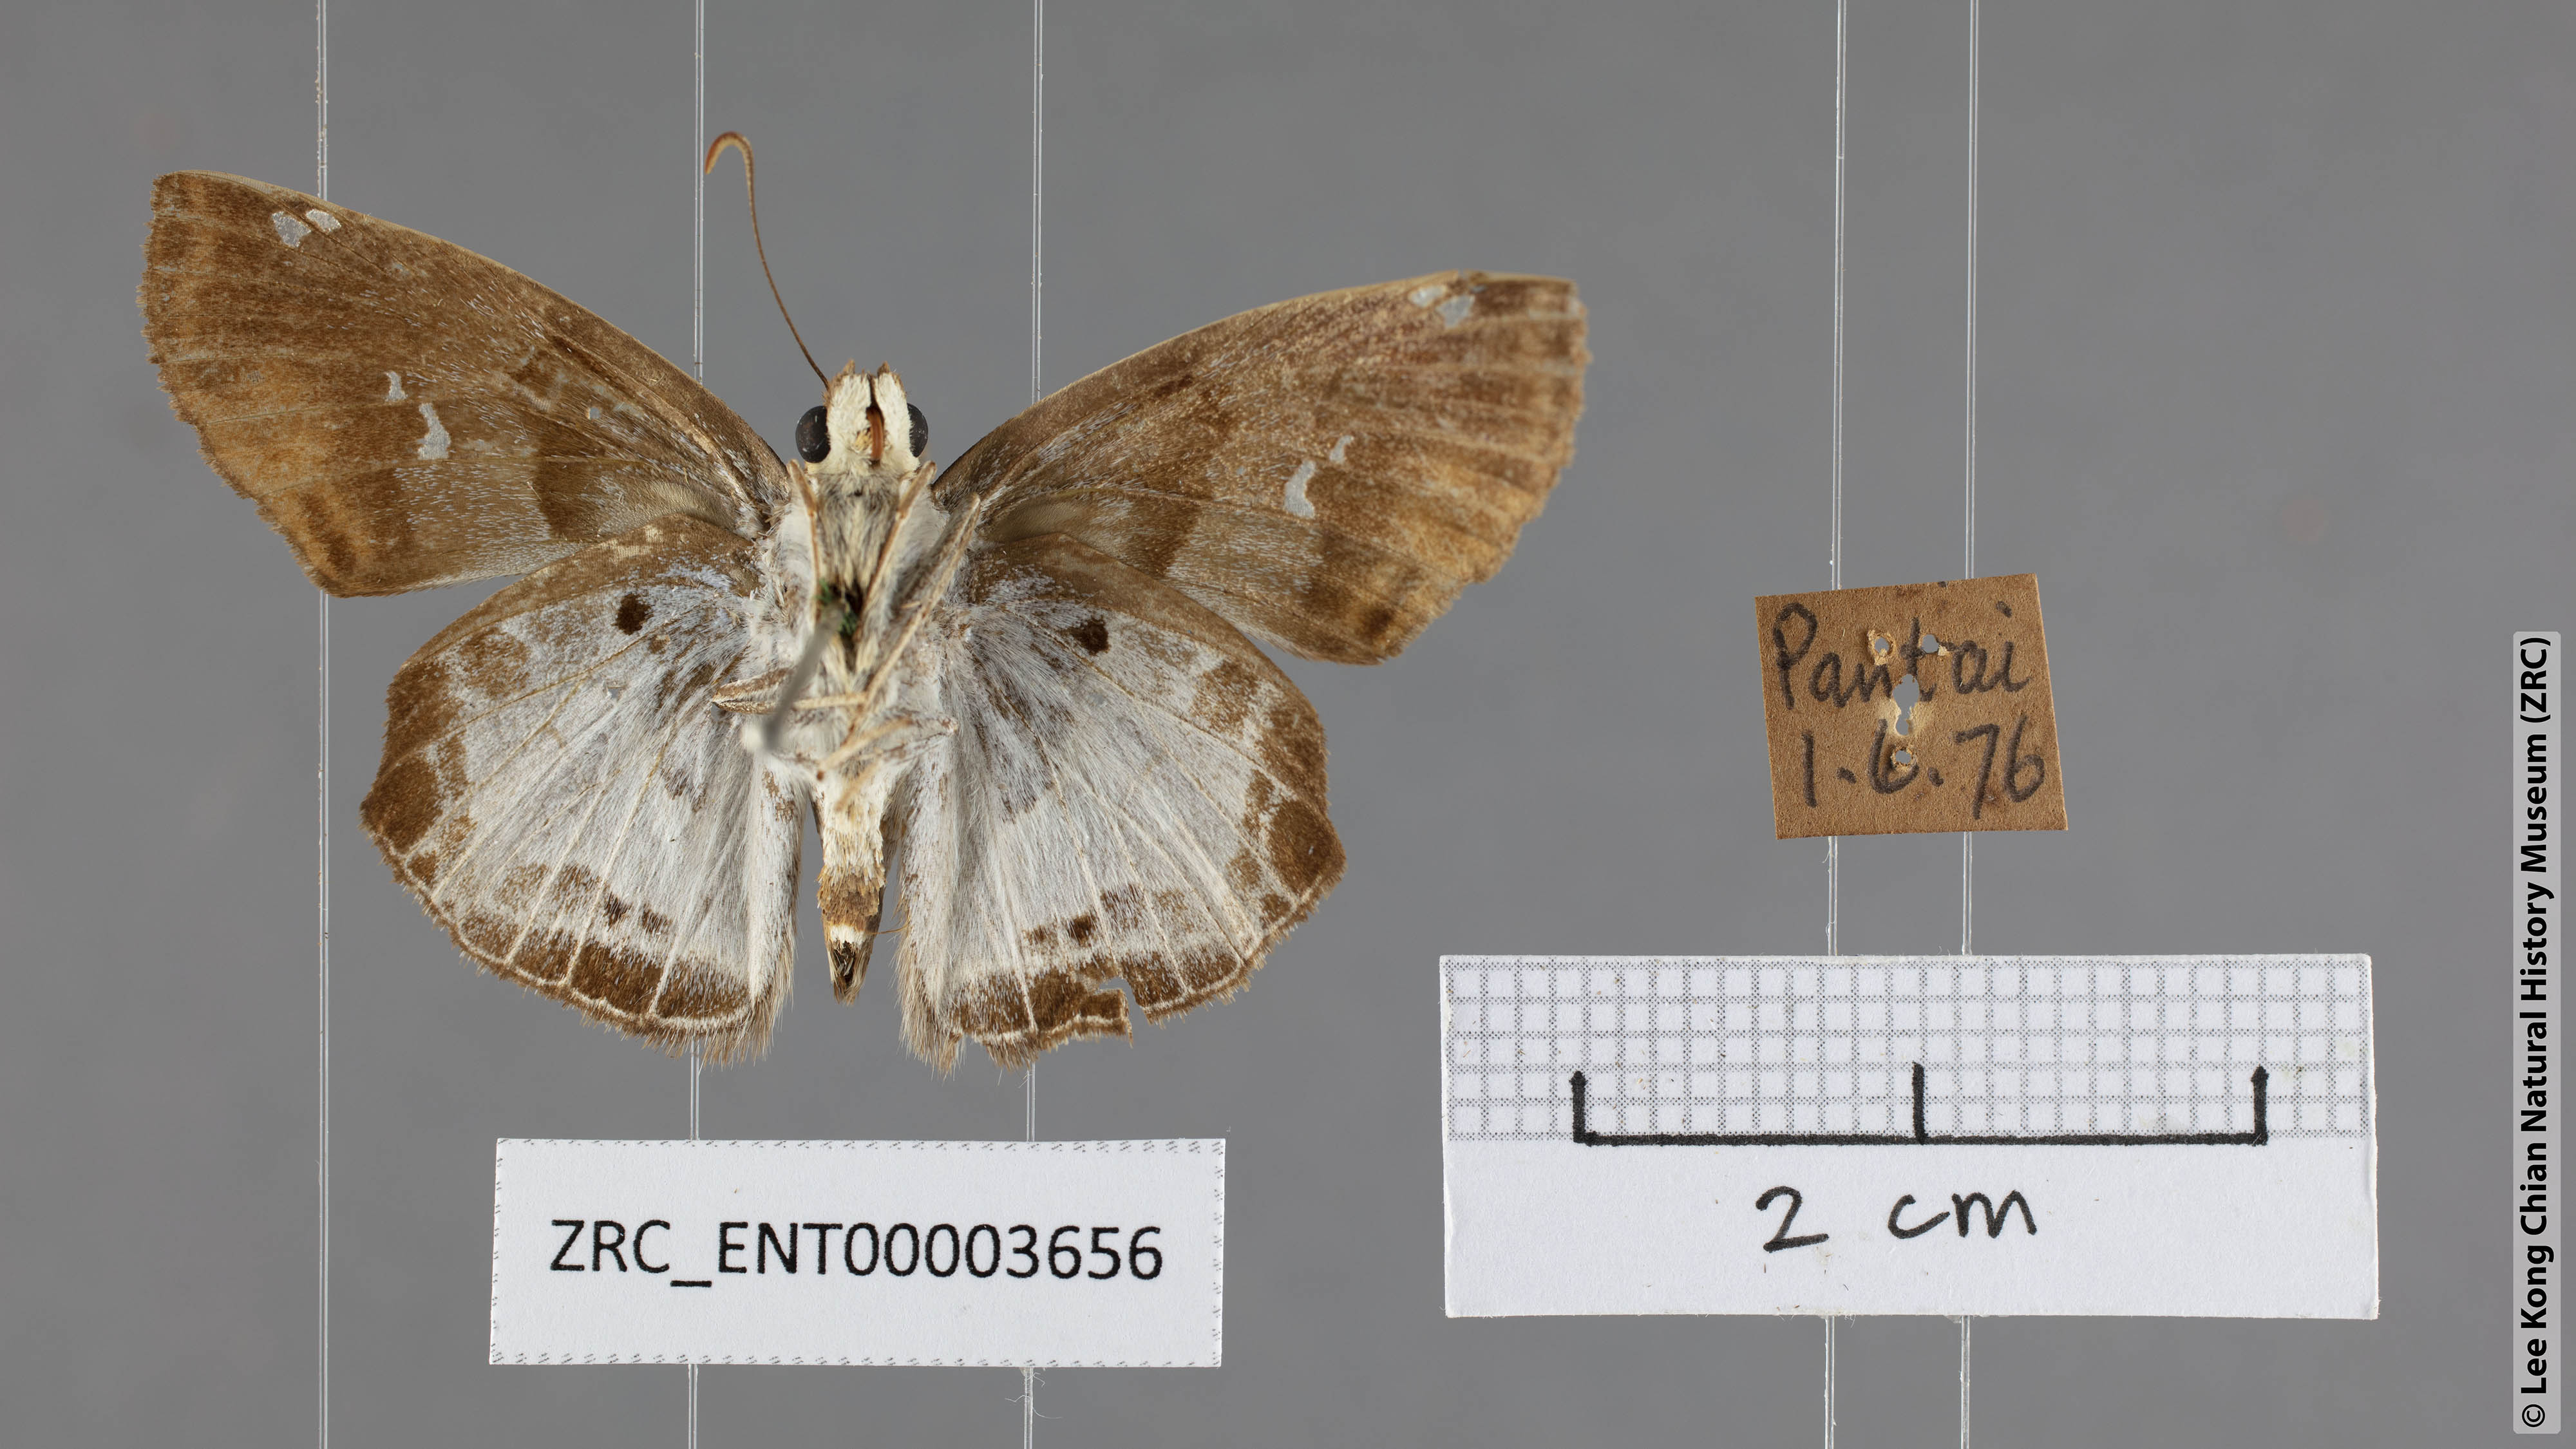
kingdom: Animalia
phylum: Arthropoda
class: Insecta
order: Lepidoptera
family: Hesperiidae
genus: Odontoptilum
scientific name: Odontoptilum angulata
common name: Chestnut banded angle
